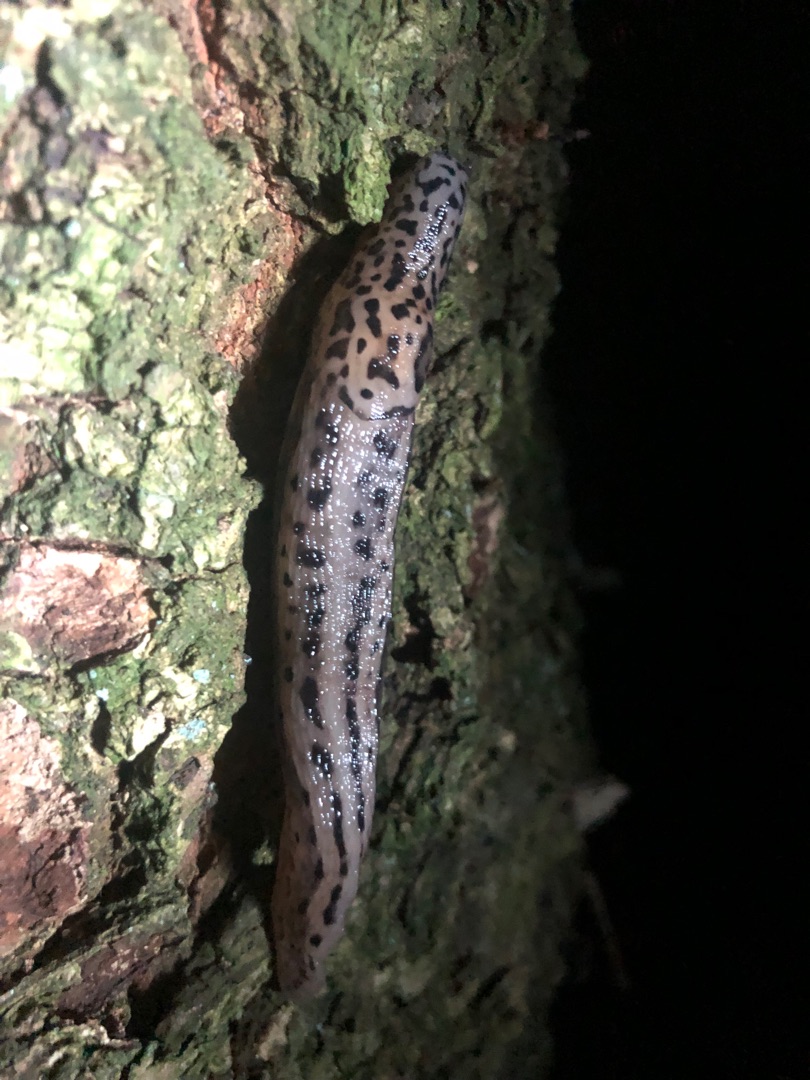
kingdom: Animalia
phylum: Mollusca
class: Gastropoda
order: Stylommatophora
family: Limacidae
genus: Limax
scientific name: Limax maximus
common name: Pantersnegl
